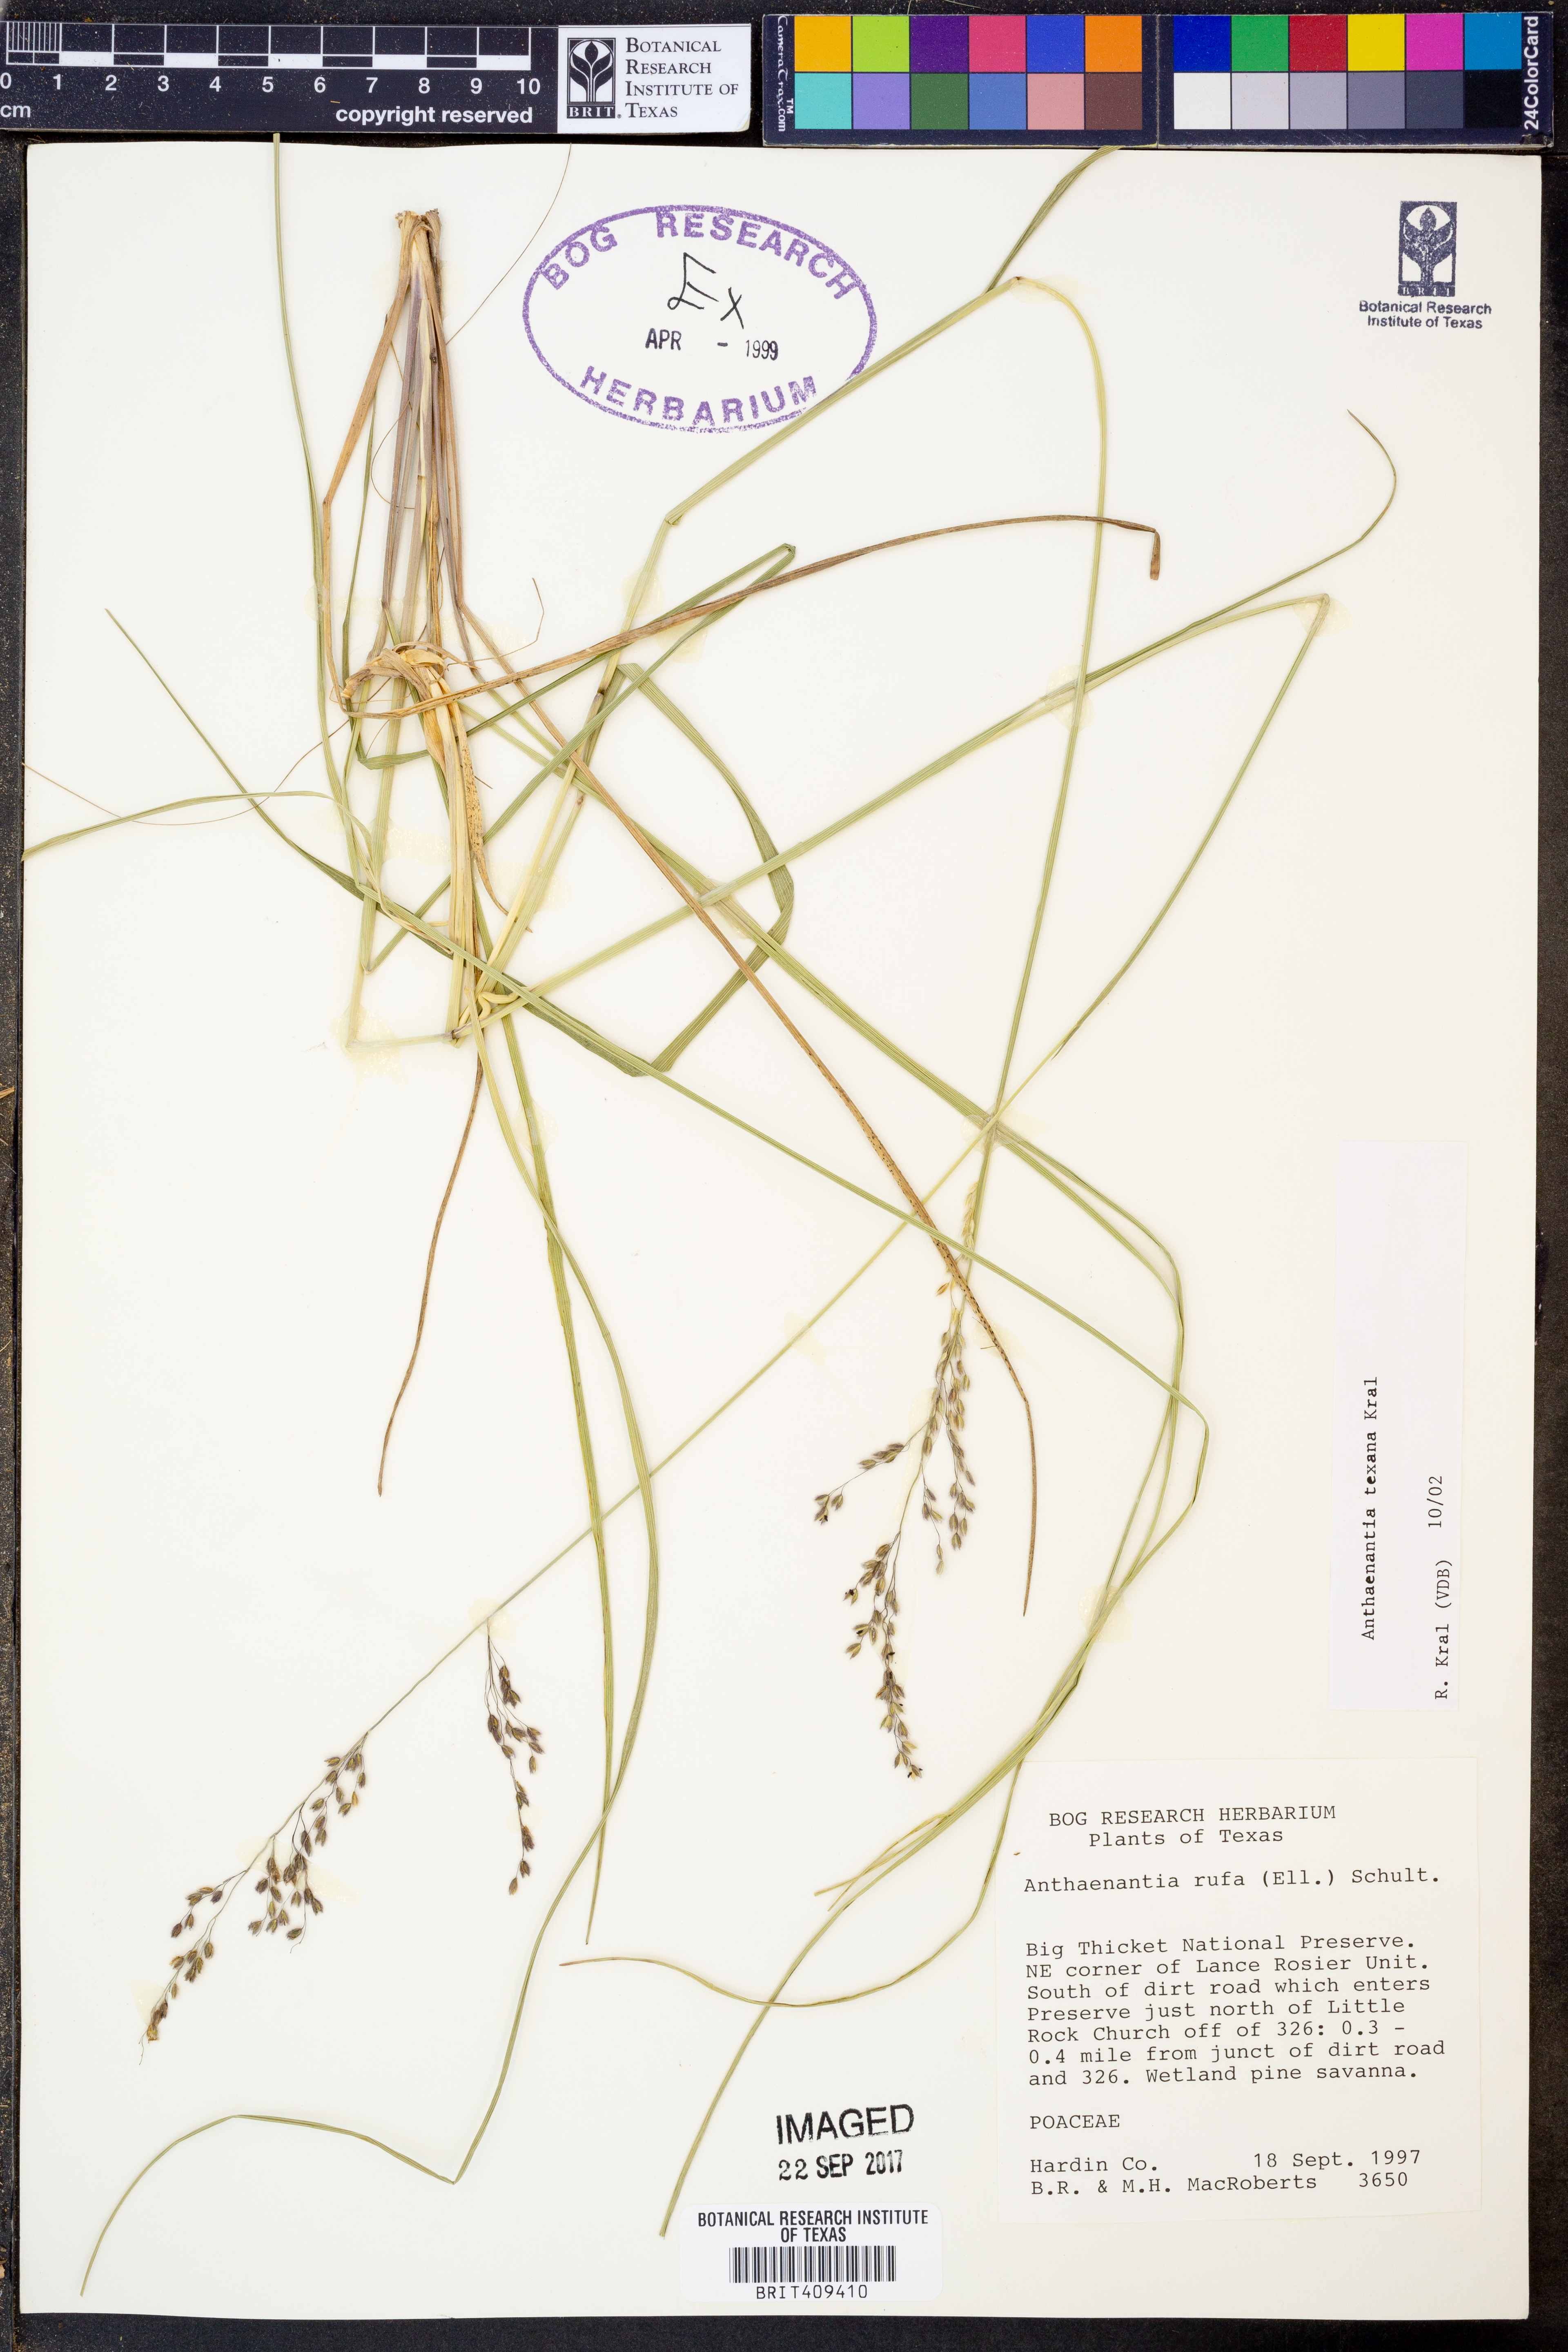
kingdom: Plantae
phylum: Tracheophyta
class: Liliopsida
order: Poales
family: Poaceae
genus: Anthenantia
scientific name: Anthenantia rufa
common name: Purple silkyscale
